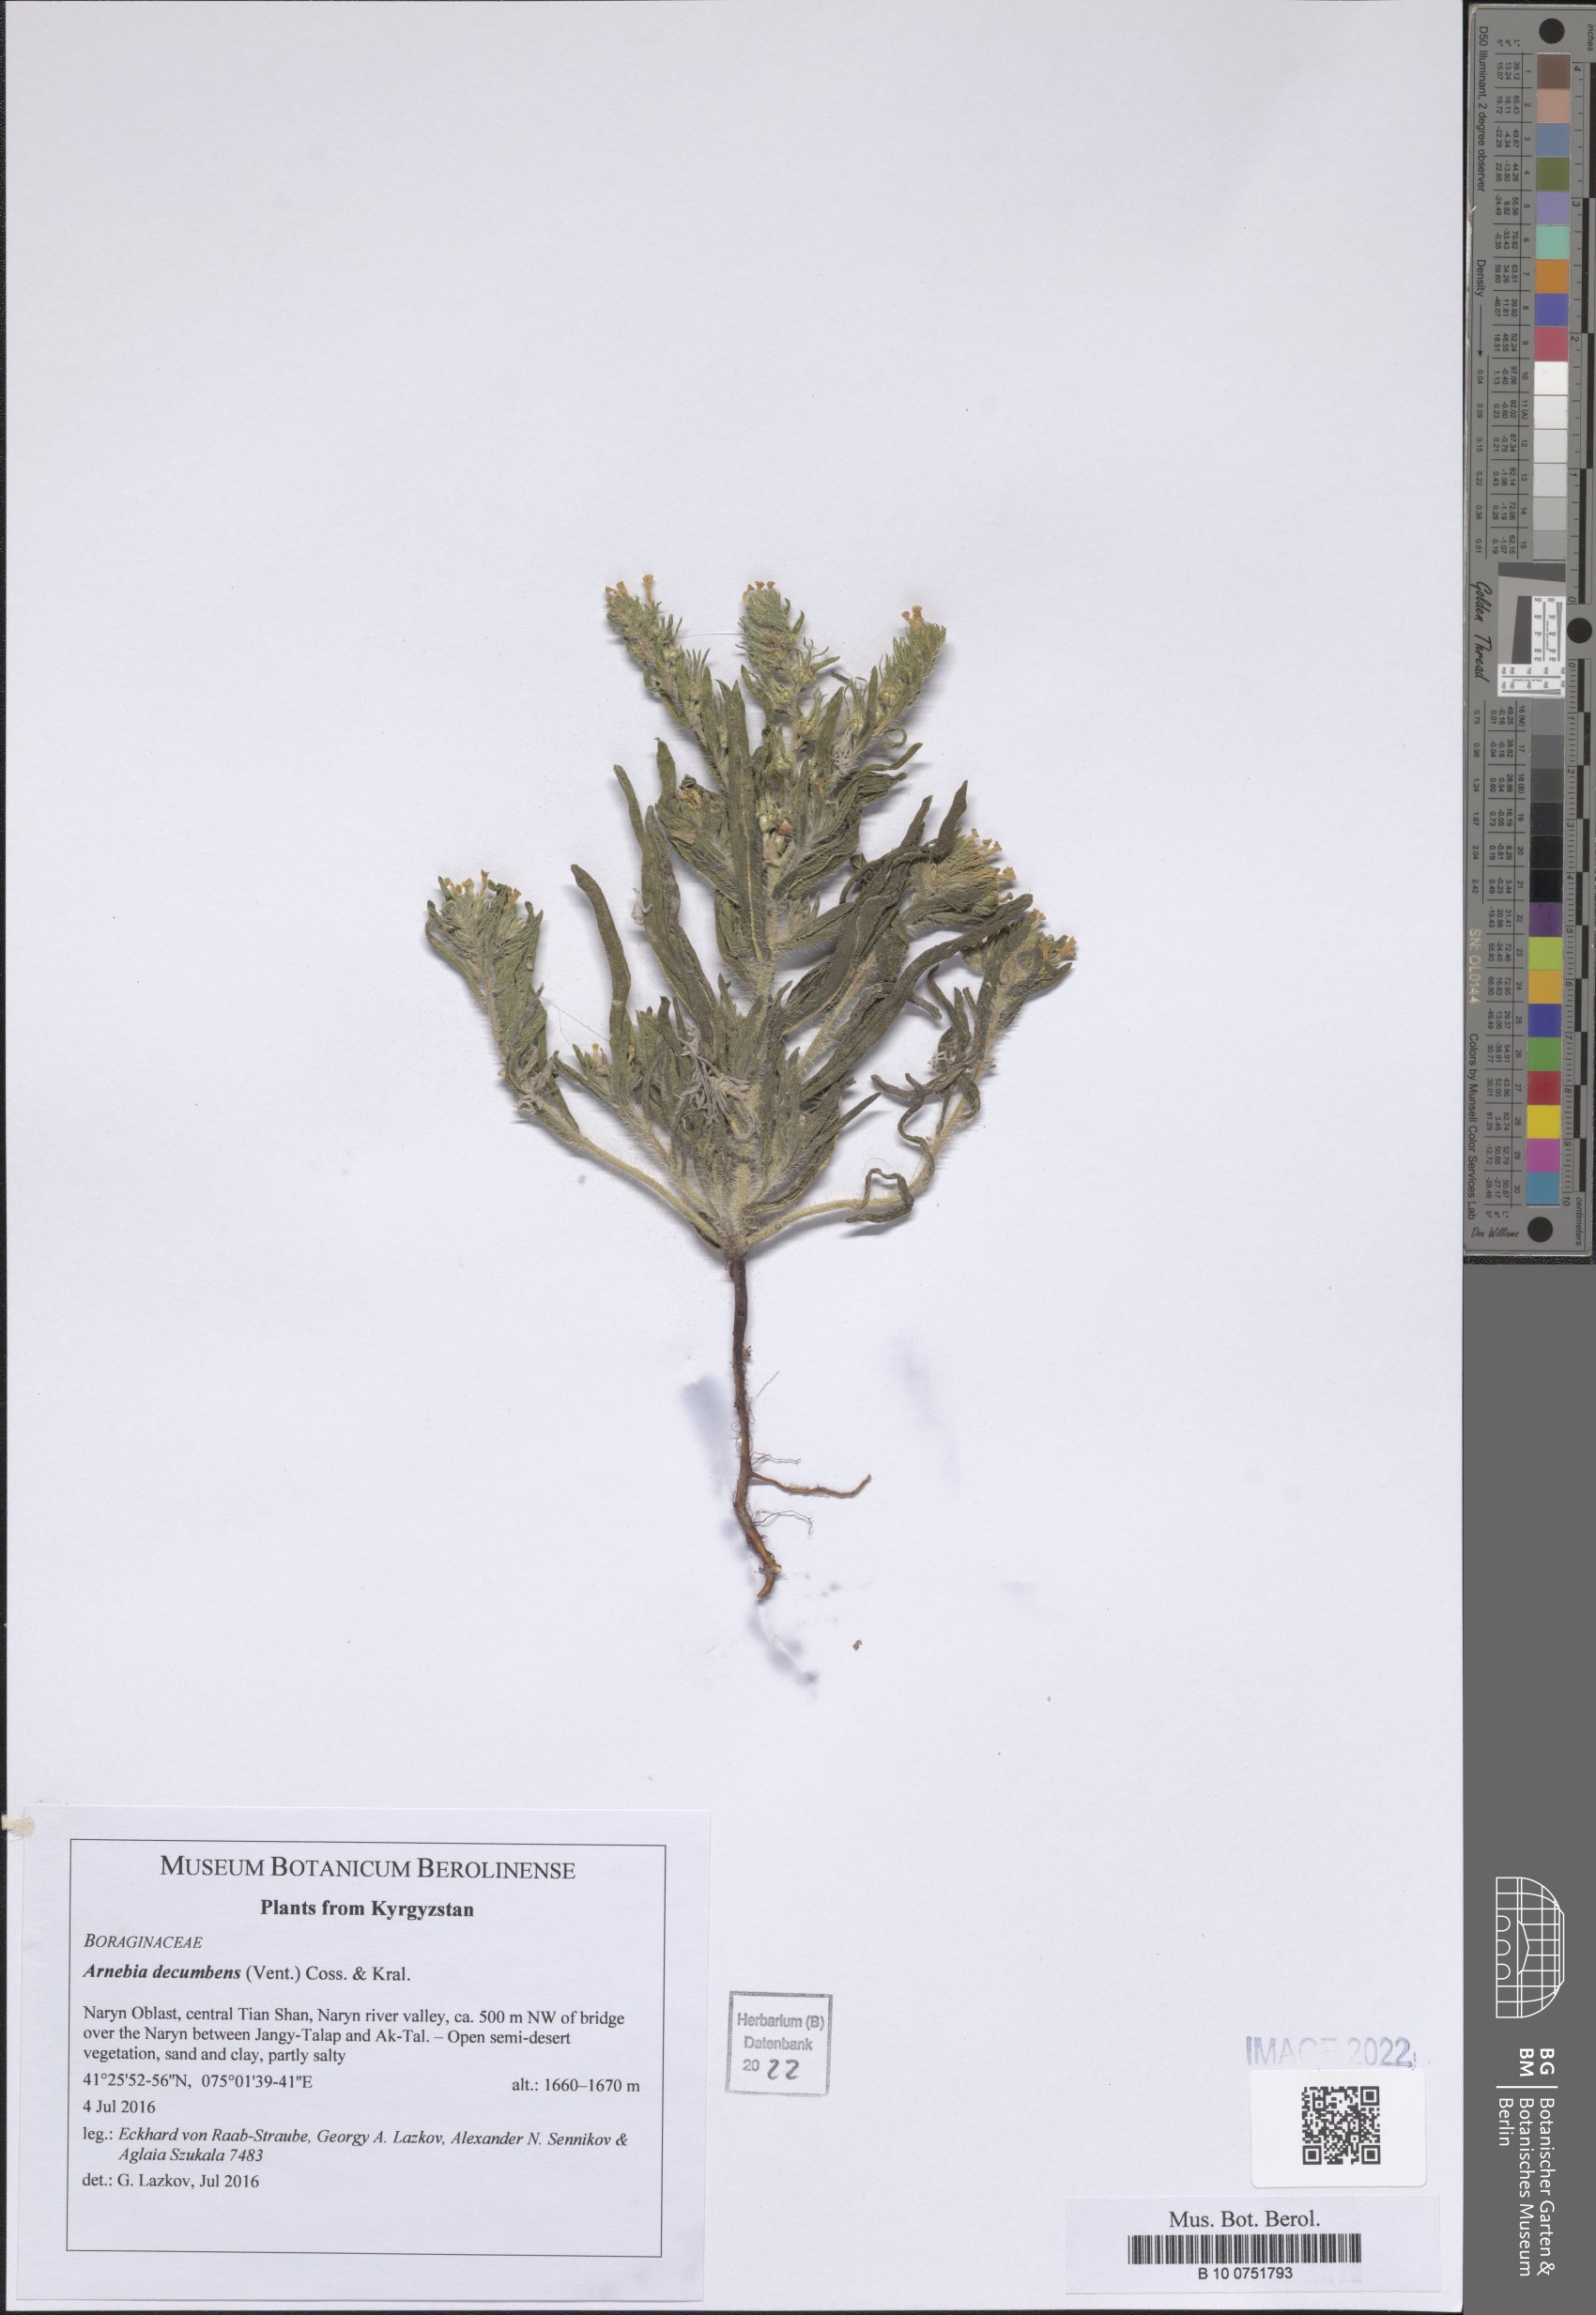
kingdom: Plantae
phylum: Tracheophyta
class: Magnoliopsida
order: Boraginales
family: Boraginaceae
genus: Arnebia
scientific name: Arnebia decumbens
